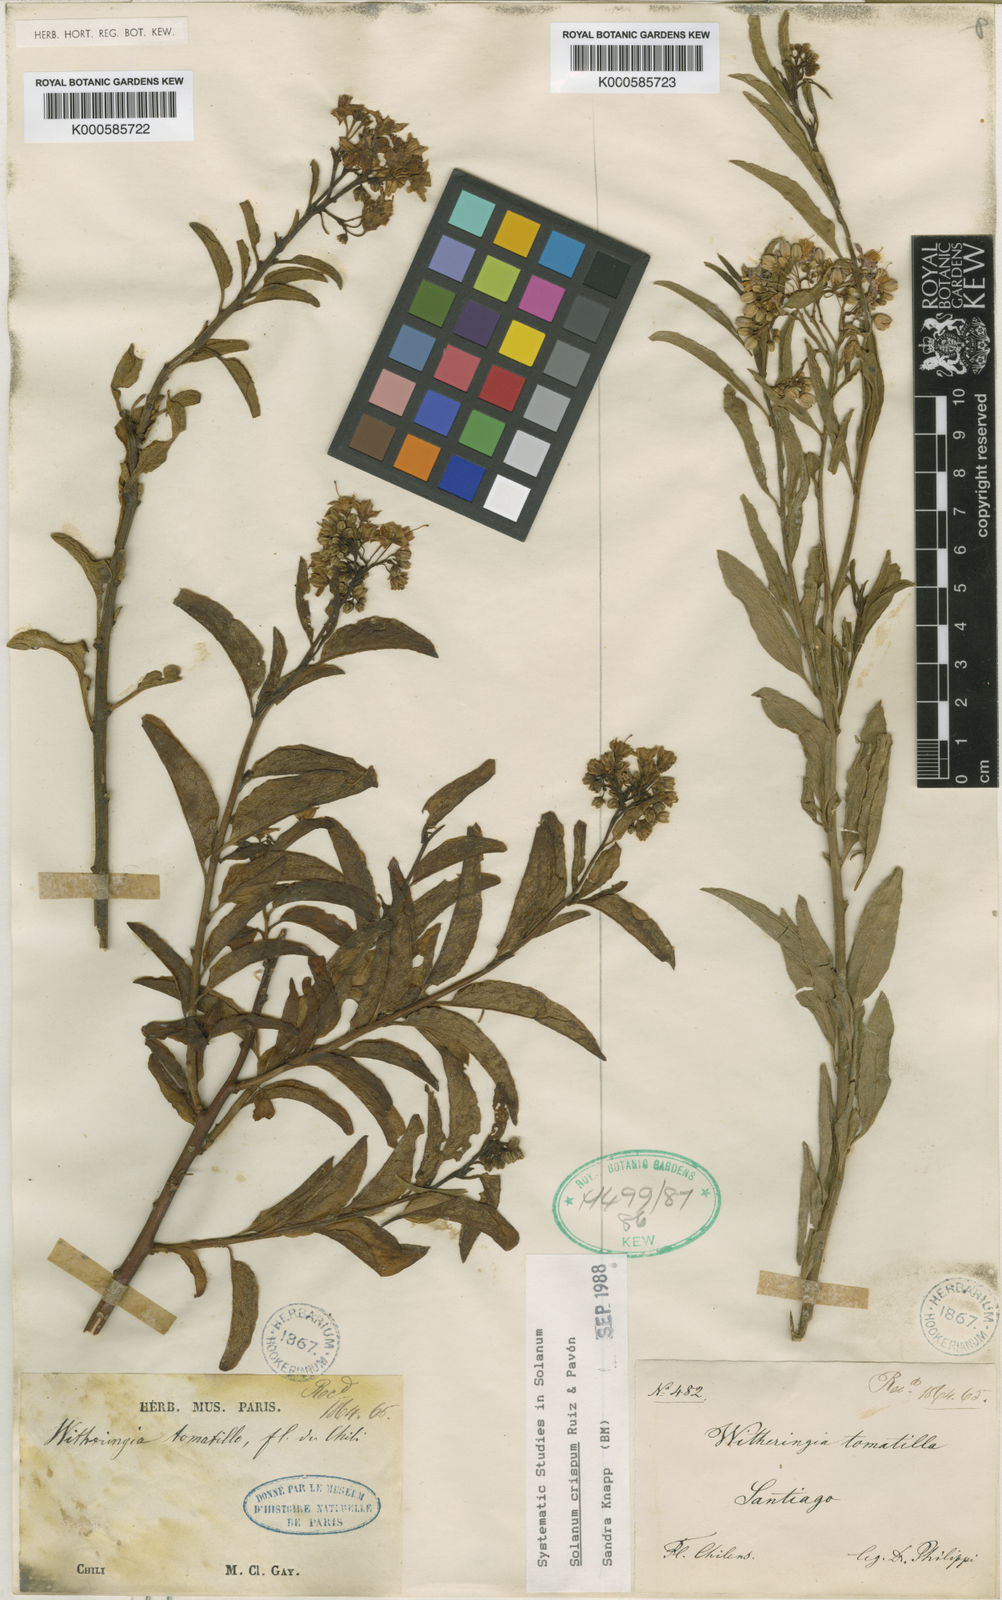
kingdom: Plantae
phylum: Tracheophyta
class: Magnoliopsida
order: Solanales
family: Solanaceae
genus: Solanum
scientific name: Solanum crispum
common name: Chilean nightshade
